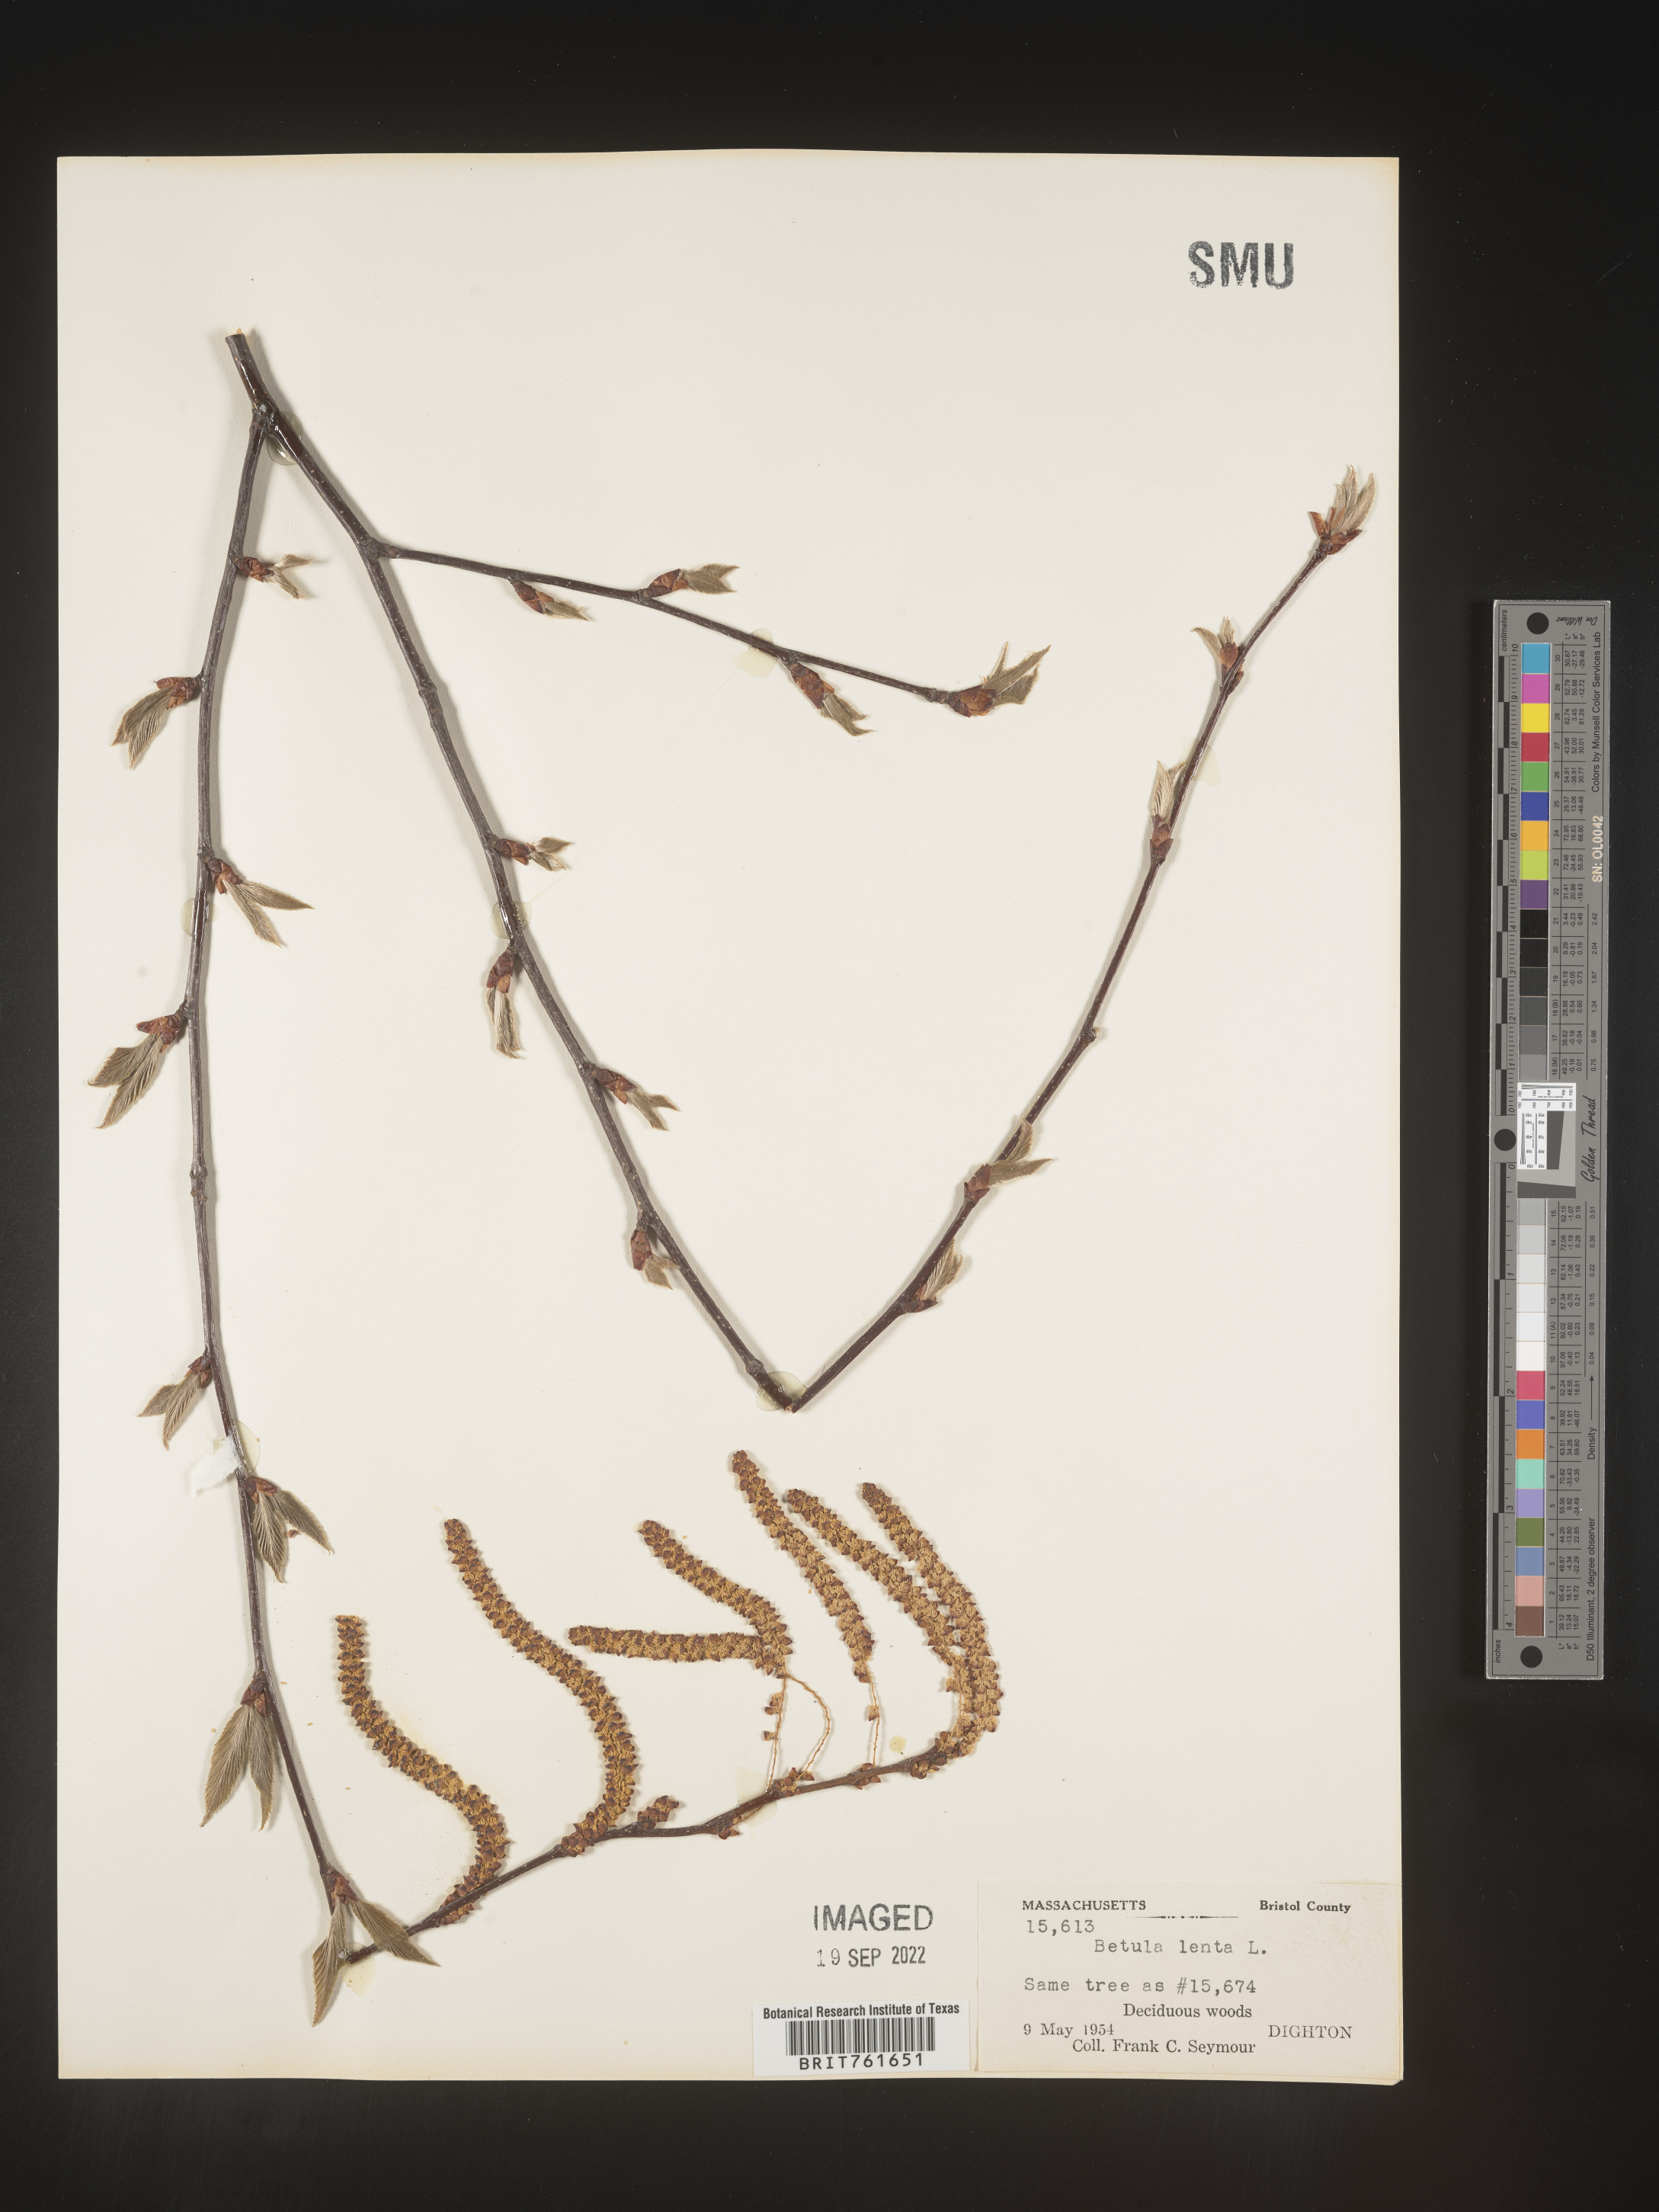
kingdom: Plantae
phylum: Tracheophyta
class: Magnoliopsida
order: Fagales
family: Betulaceae
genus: Betula
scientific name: Betula lenta
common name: Black birch
